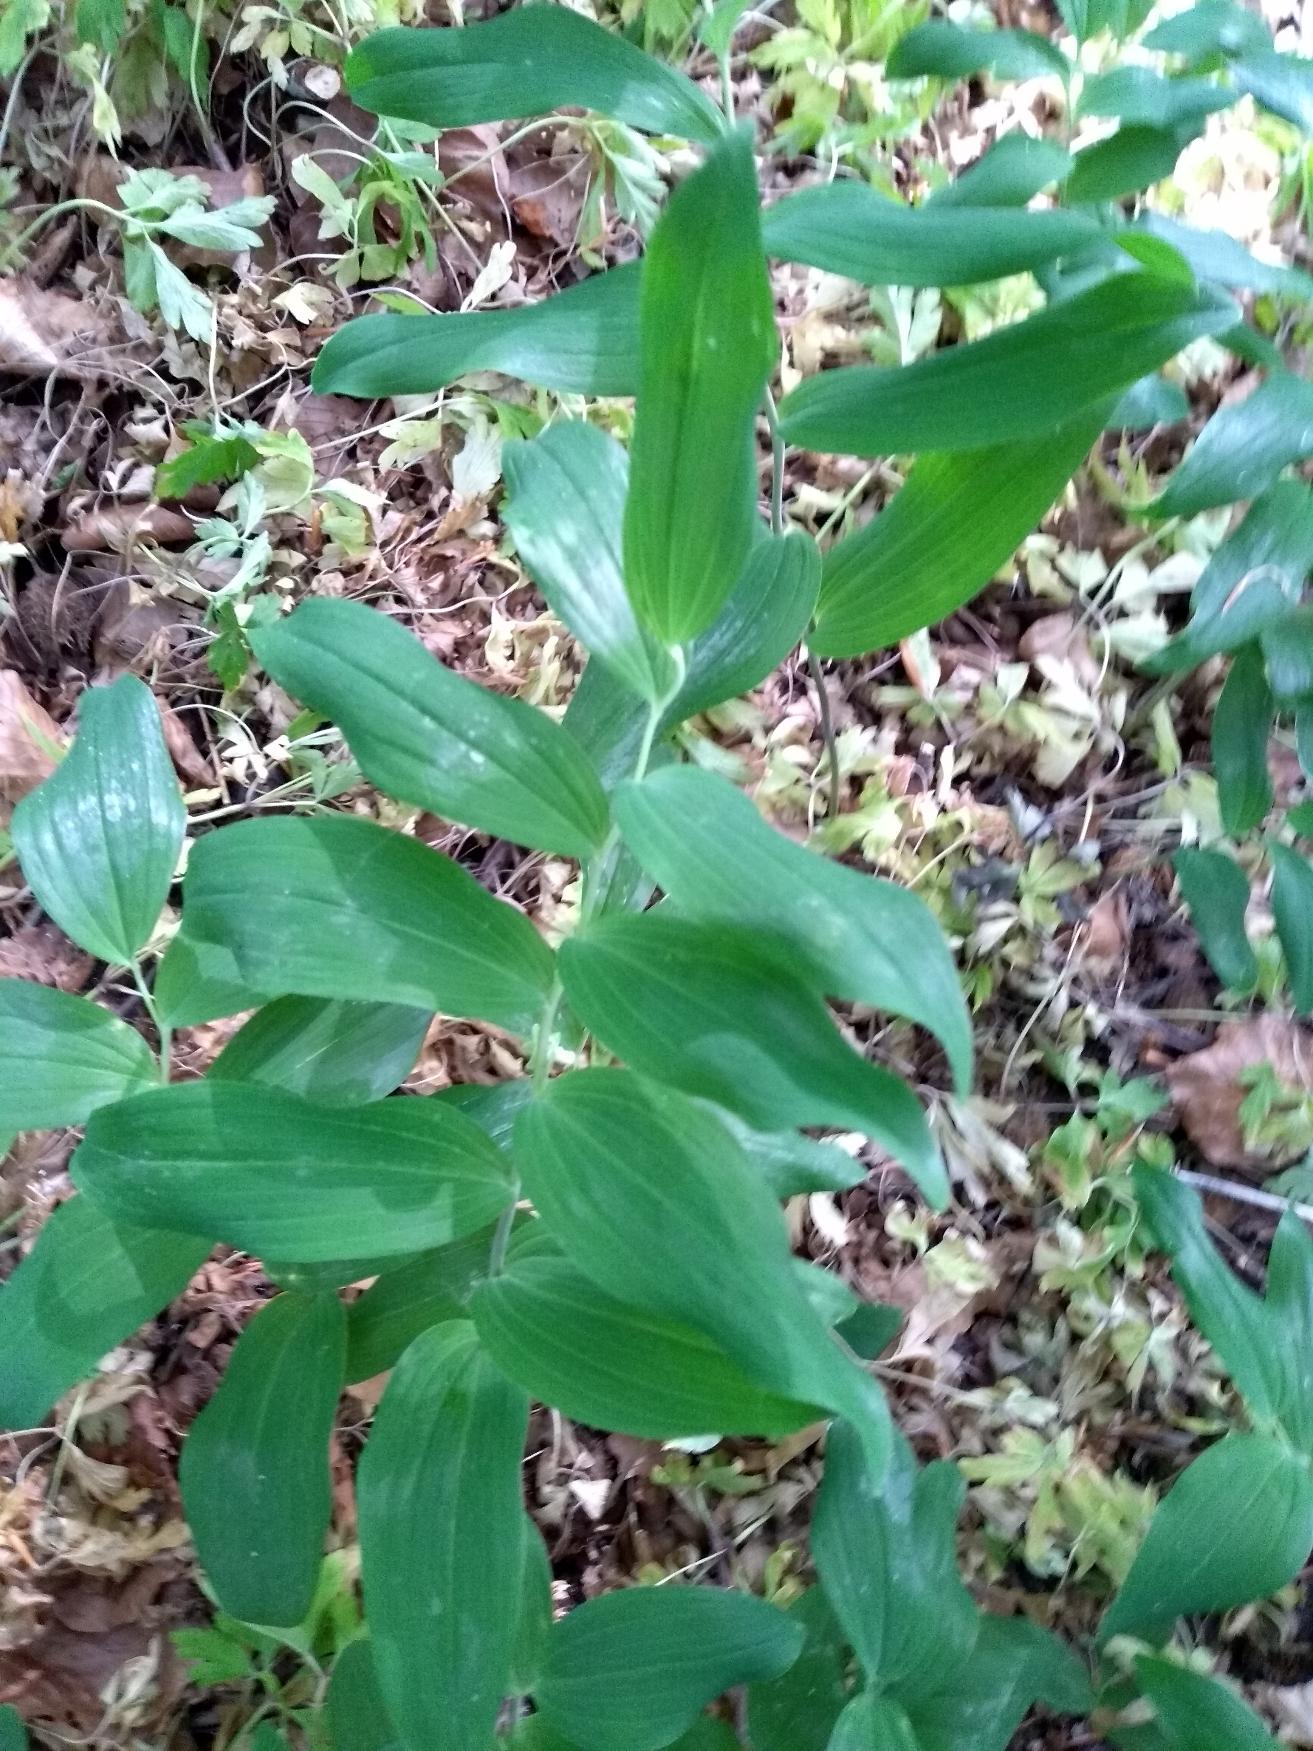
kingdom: Plantae
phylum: Tracheophyta
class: Liliopsida
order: Asparagales
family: Asparagaceae
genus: Polygonatum
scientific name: Polygonatum multiflorum
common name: Stor konval
